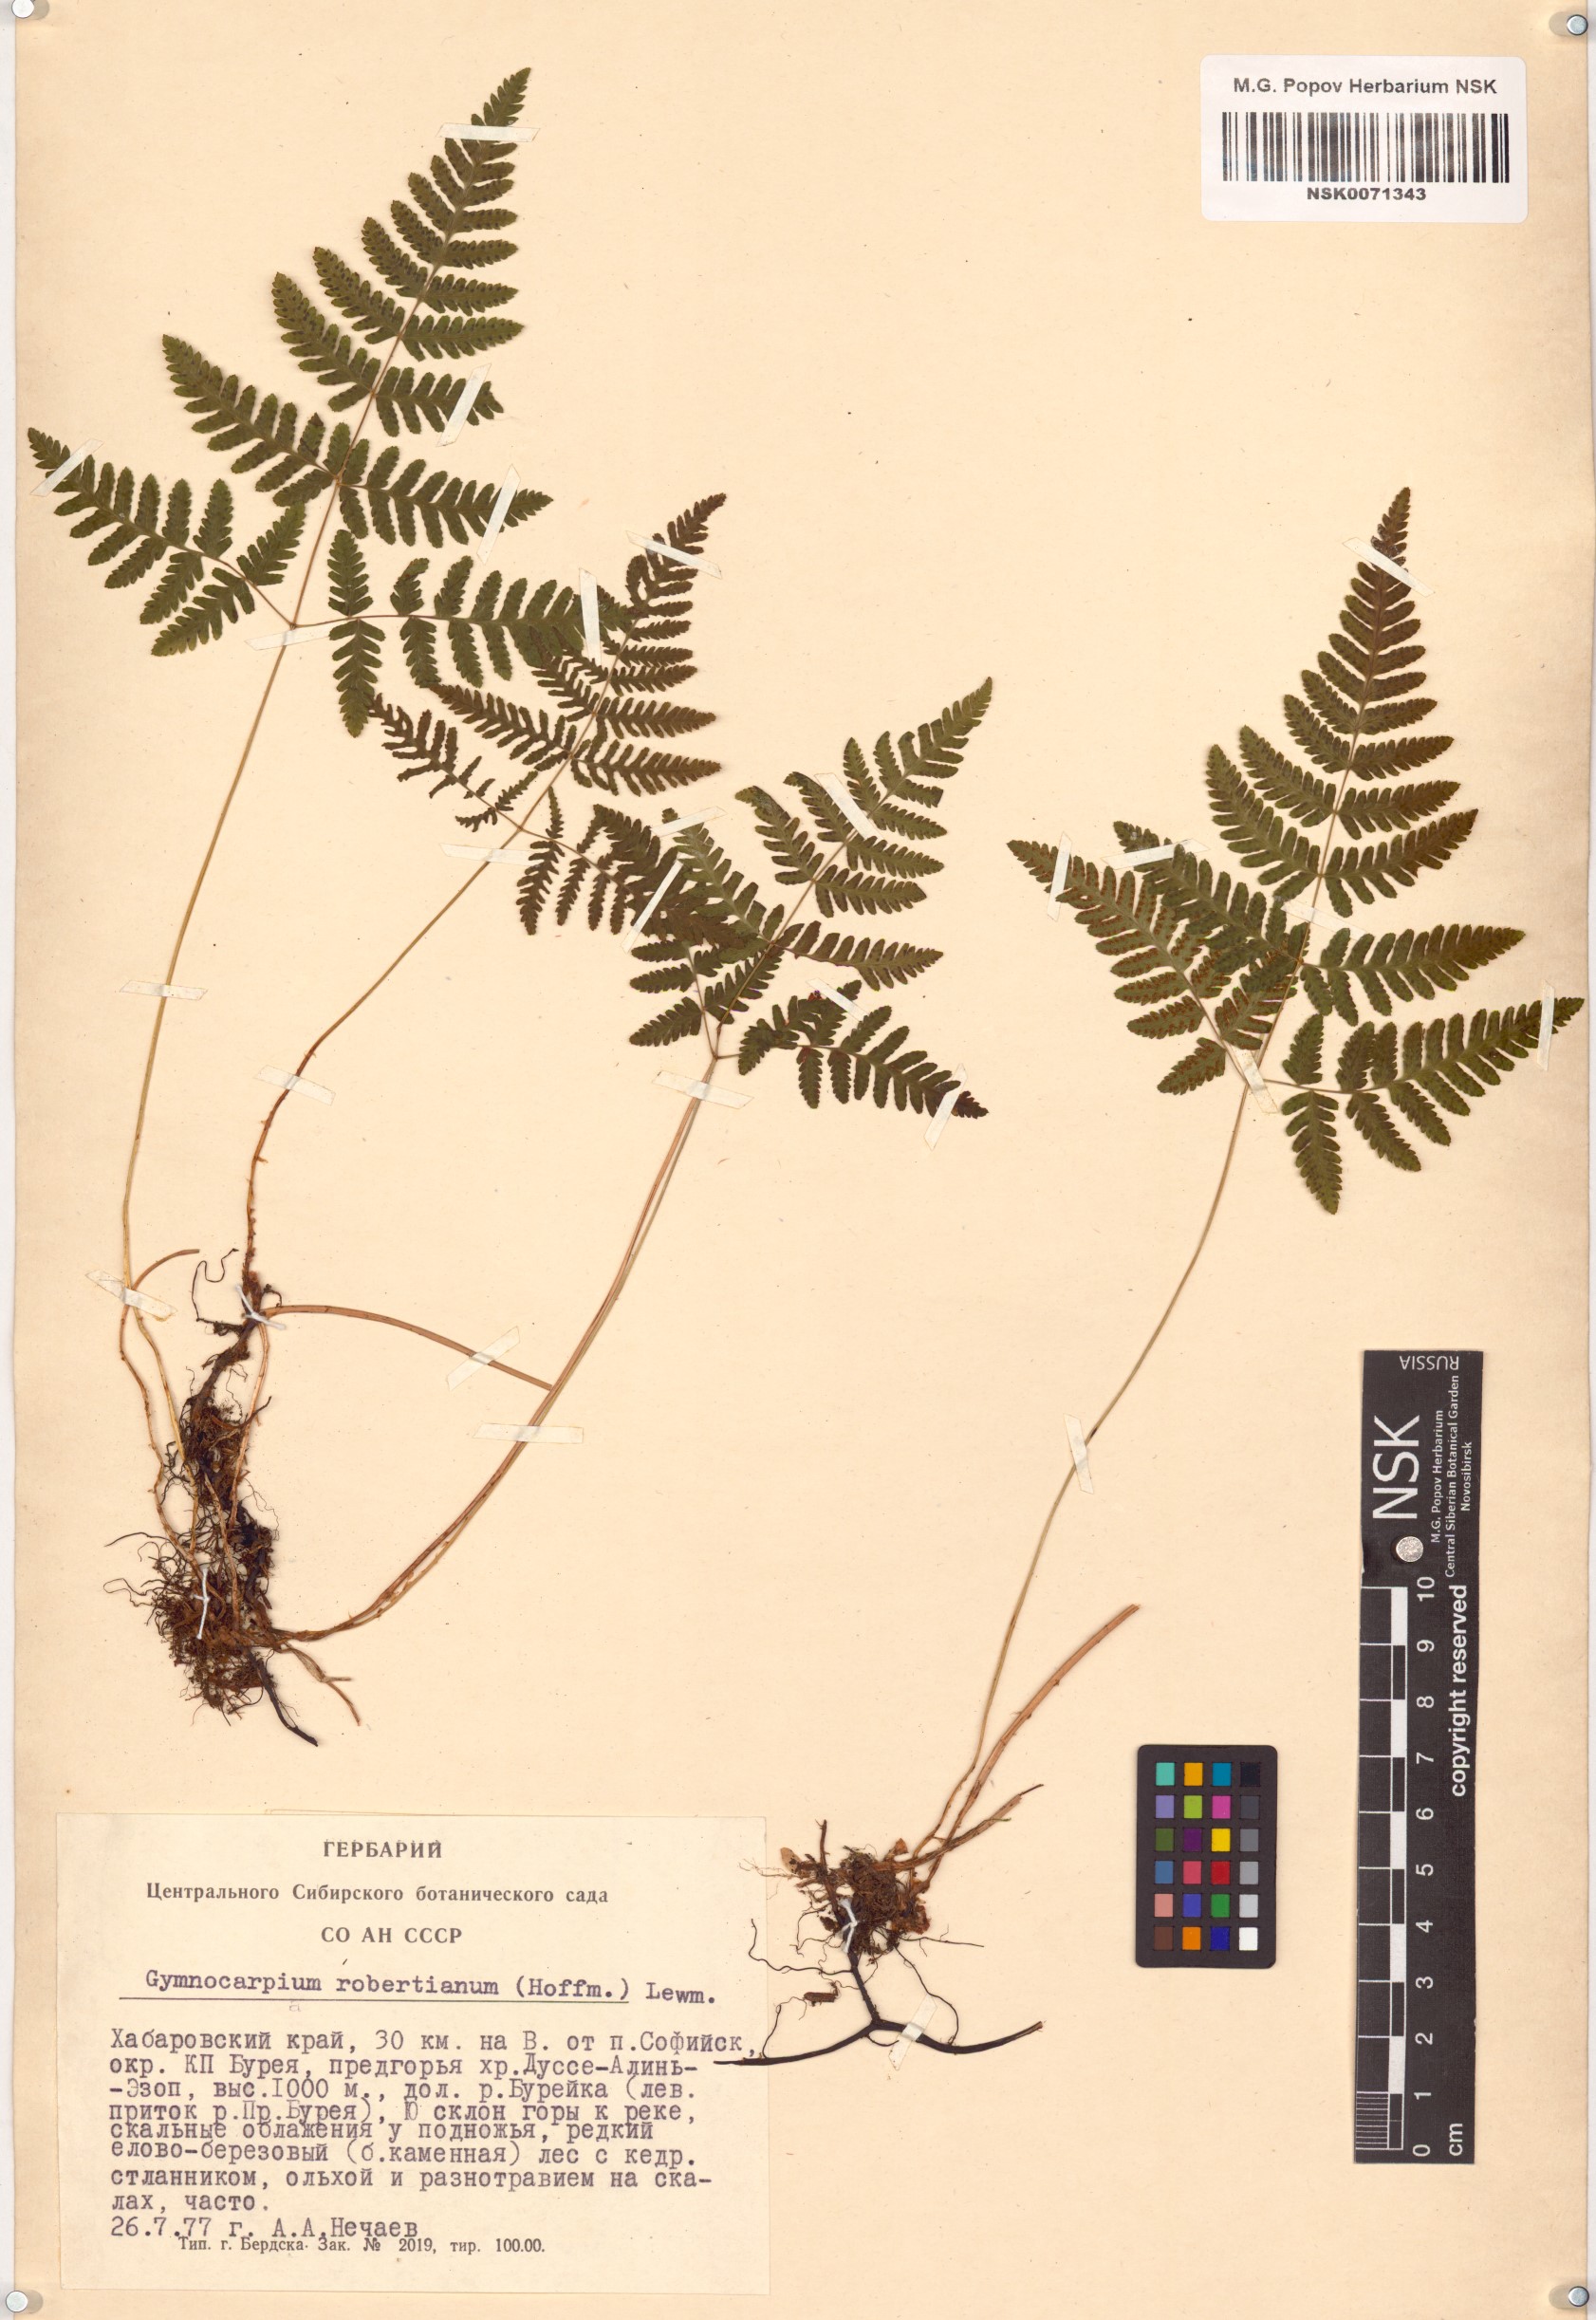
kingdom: Plantae
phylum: Tracheophyta
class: Polypodiopsida
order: Polypodiales
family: Cystopteridaceae
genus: Gymnocarpium
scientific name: Gymnocarpium robertianum
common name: Limestone fern
